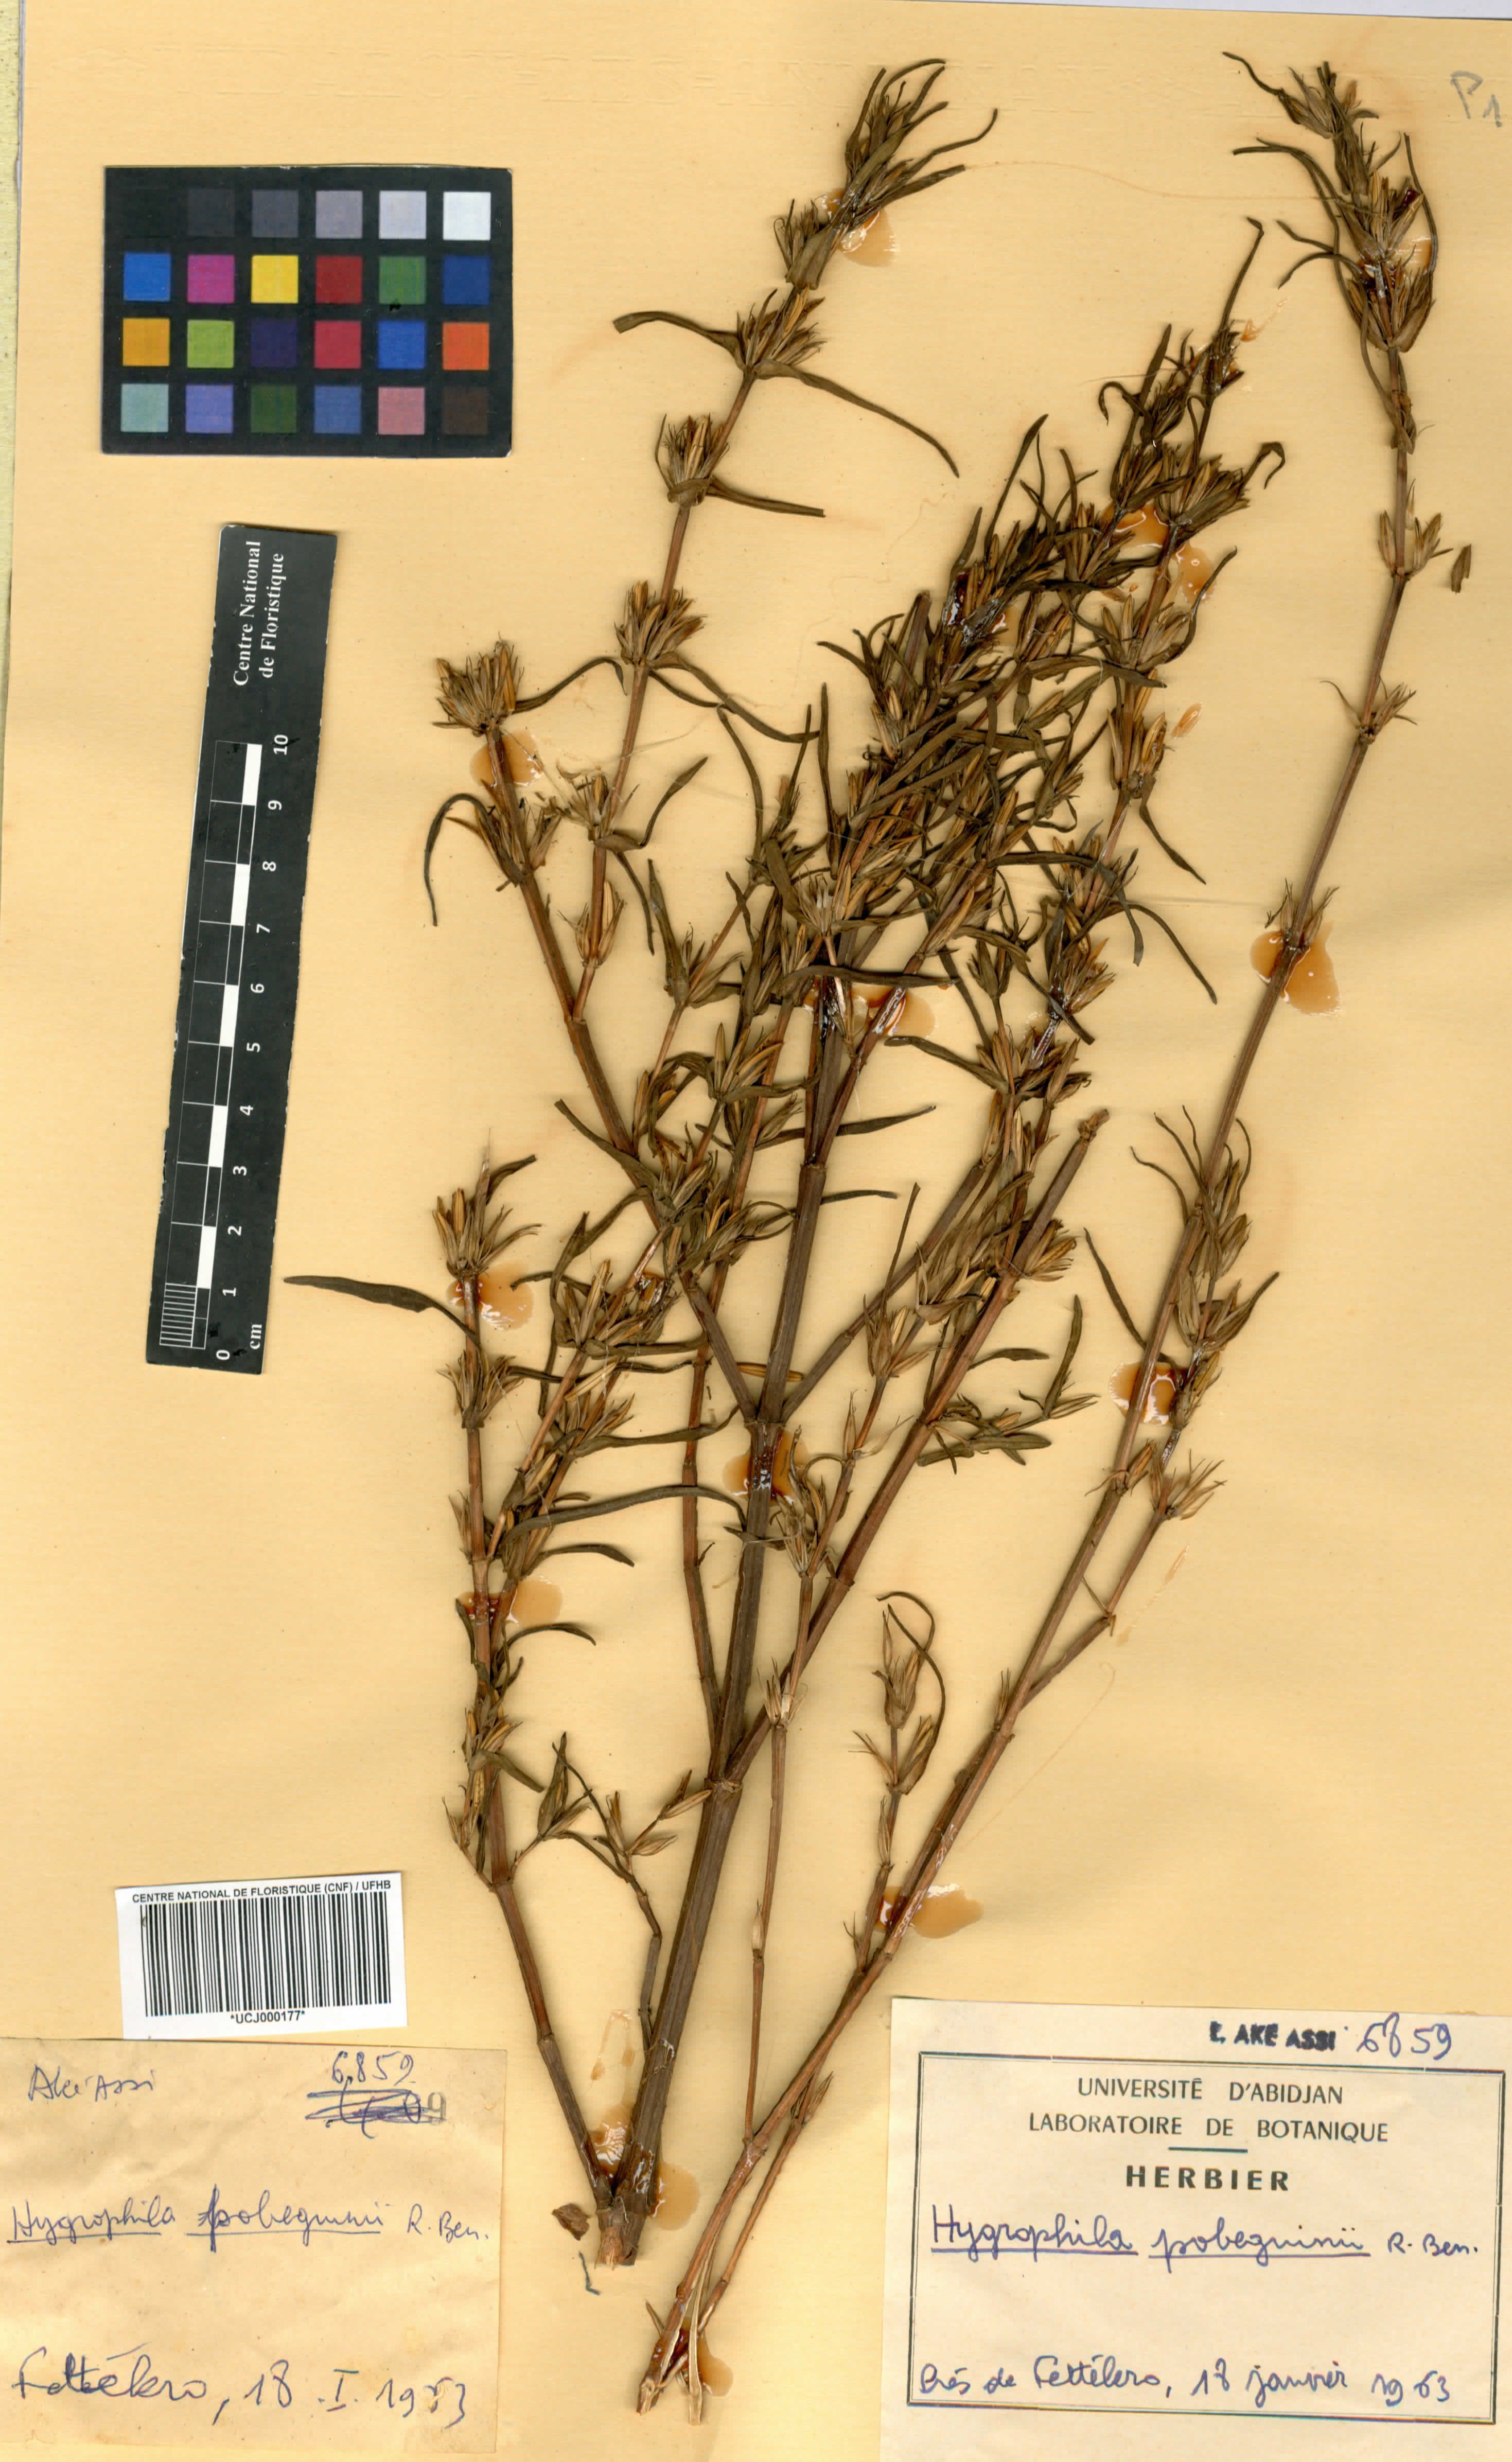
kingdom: Plantae
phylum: Tracheophyta
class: Magnoliopsida
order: Lamiales
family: Acanthaceae
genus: Hygrophila
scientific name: Hygrophila pobeguinii
